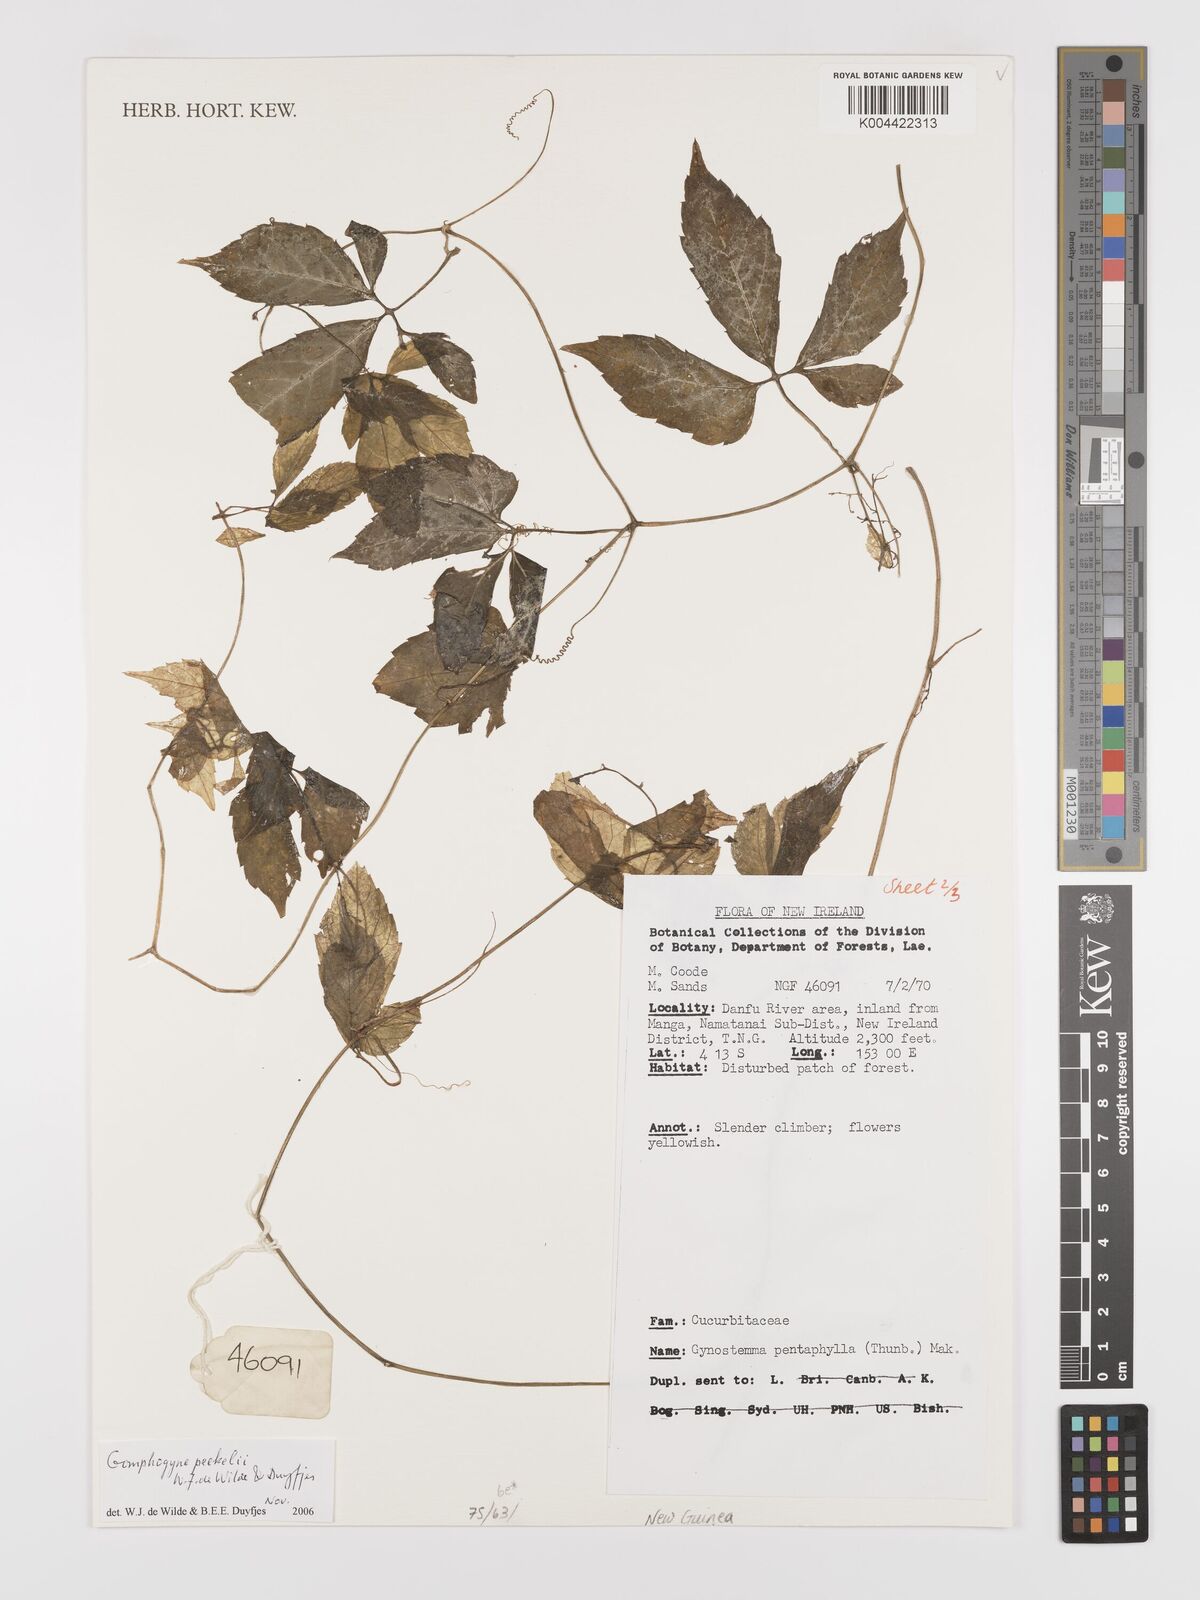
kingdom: Plantae
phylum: Tracheophyta
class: Magnoliopsida
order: Cucurbitales
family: Cucurbitaceae
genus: Hemsleya
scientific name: Hemsleya peekelii
